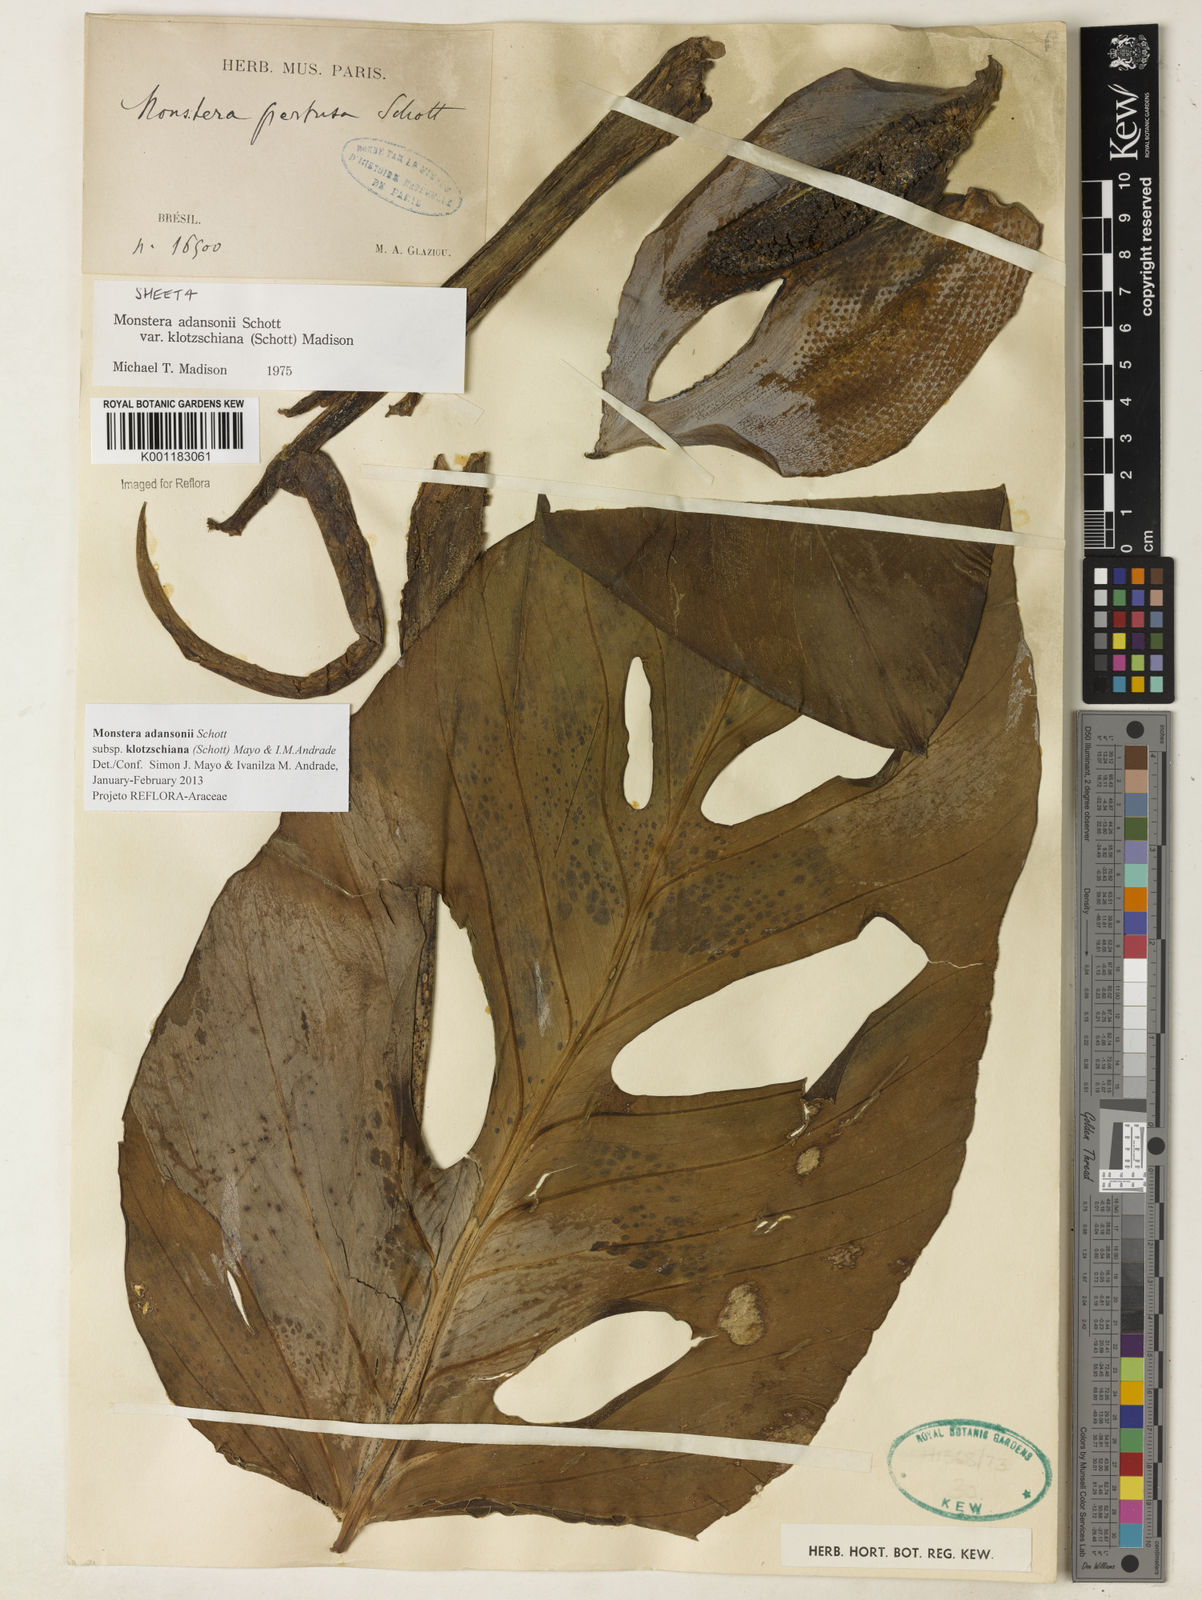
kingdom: Plantae
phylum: Tracheophyta
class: Liliopsida
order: Alismatales
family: Araceae
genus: Monstera
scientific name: Monstera adansonii
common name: Tarovine
